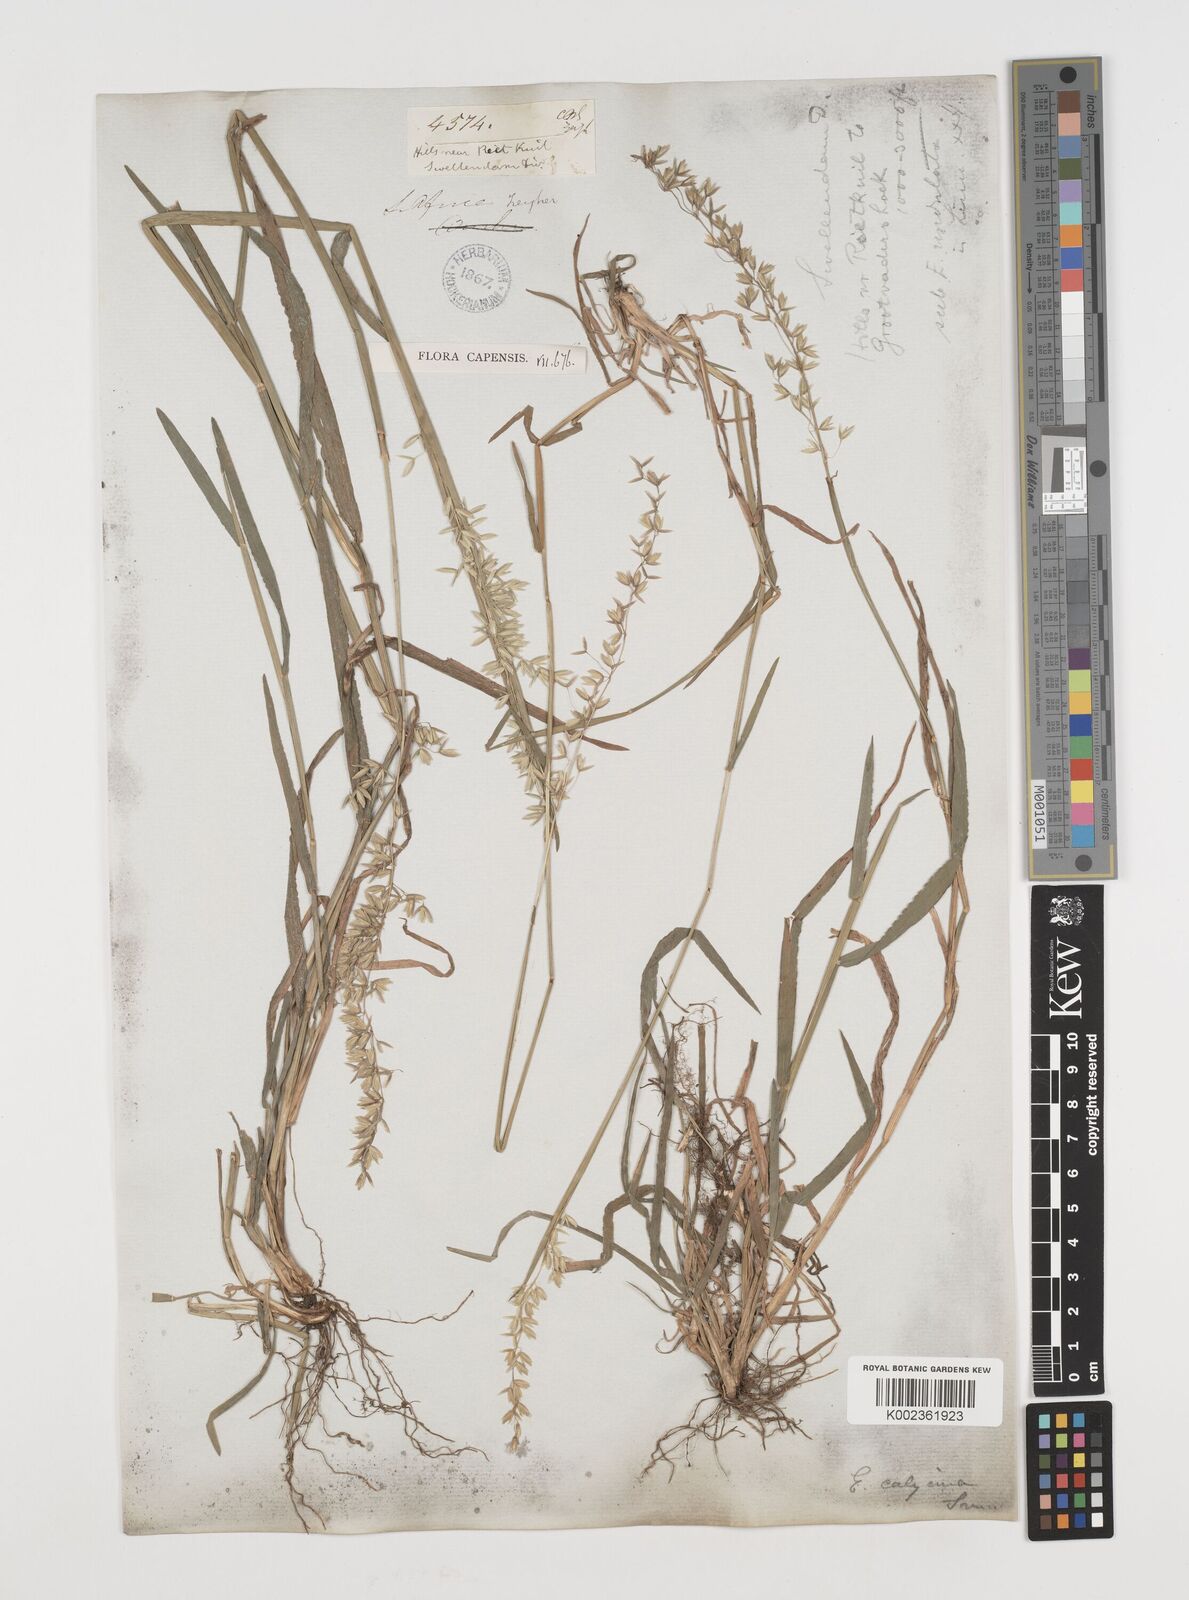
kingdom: Plantae
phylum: Tracheophyta
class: Liliopsida
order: Poales
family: Poaceae
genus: Ehrharta
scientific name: Ehrharta calycina
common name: Perennial veldtgrass
